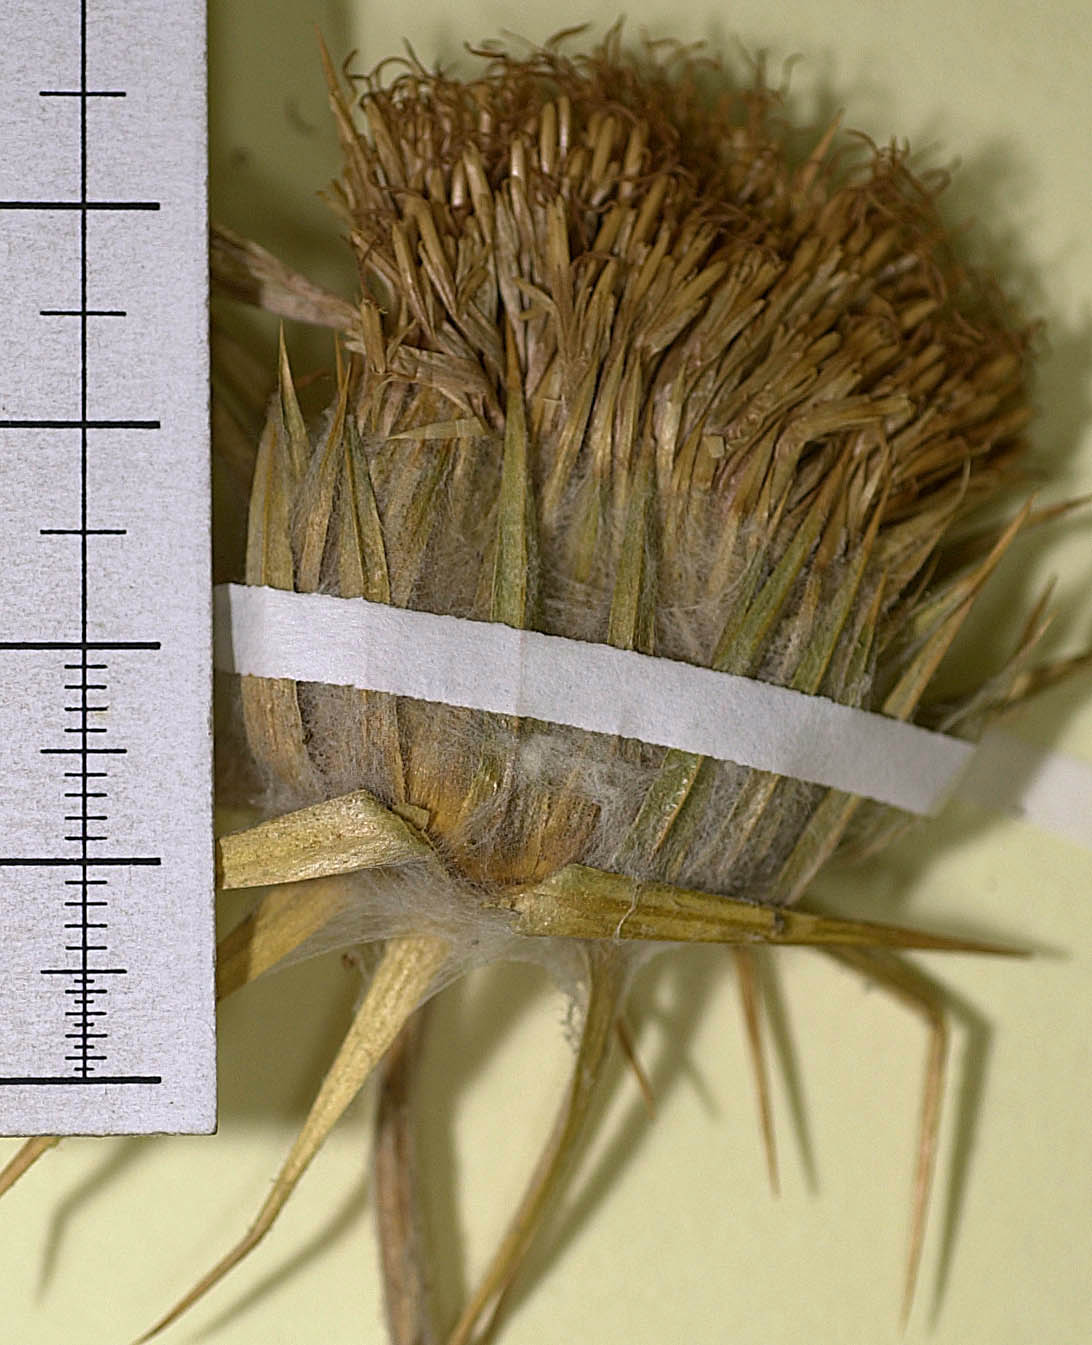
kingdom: Plantae
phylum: Tracheophyta
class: Magnoliopsida
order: Asterales
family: Asteraceae
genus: Cousinia
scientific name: Cousinia orthoneura
